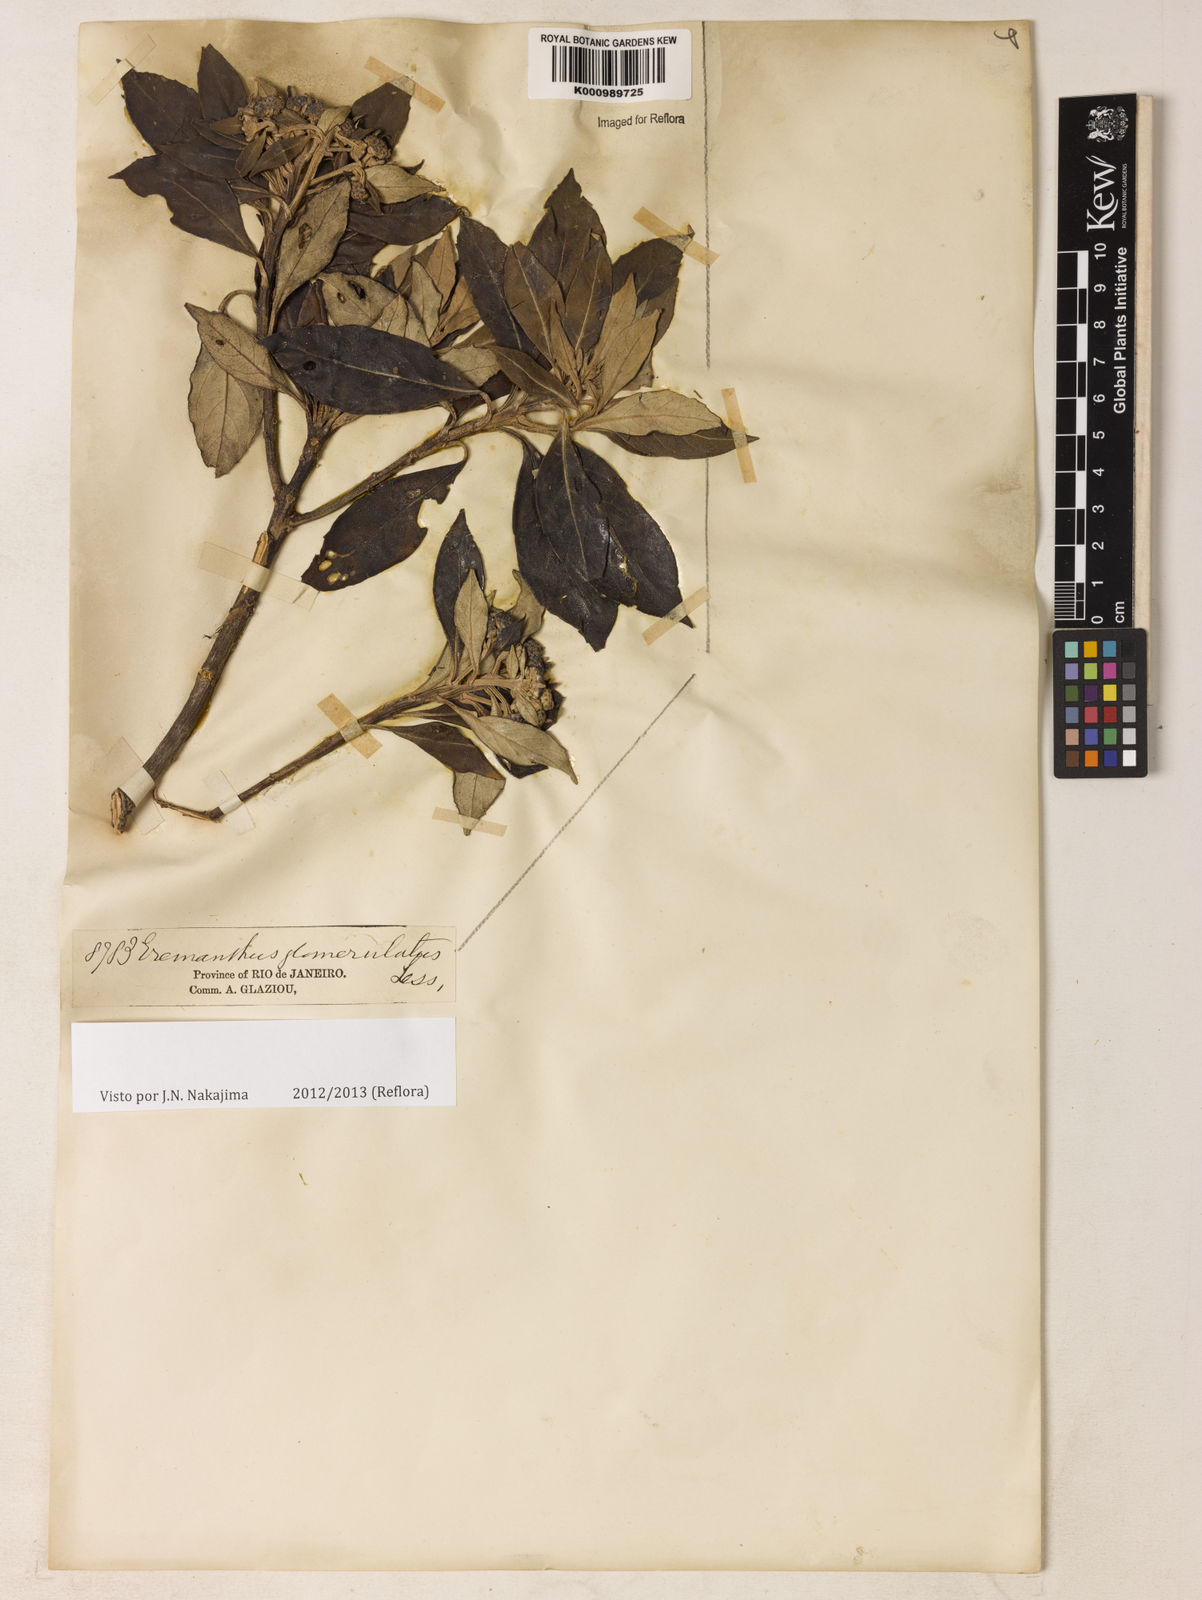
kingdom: Plantae
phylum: Tracheophyta
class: Magnoliopsida
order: Asterales
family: Asteraceae
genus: Eremanthus
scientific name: Eremanthus glomerulatus
